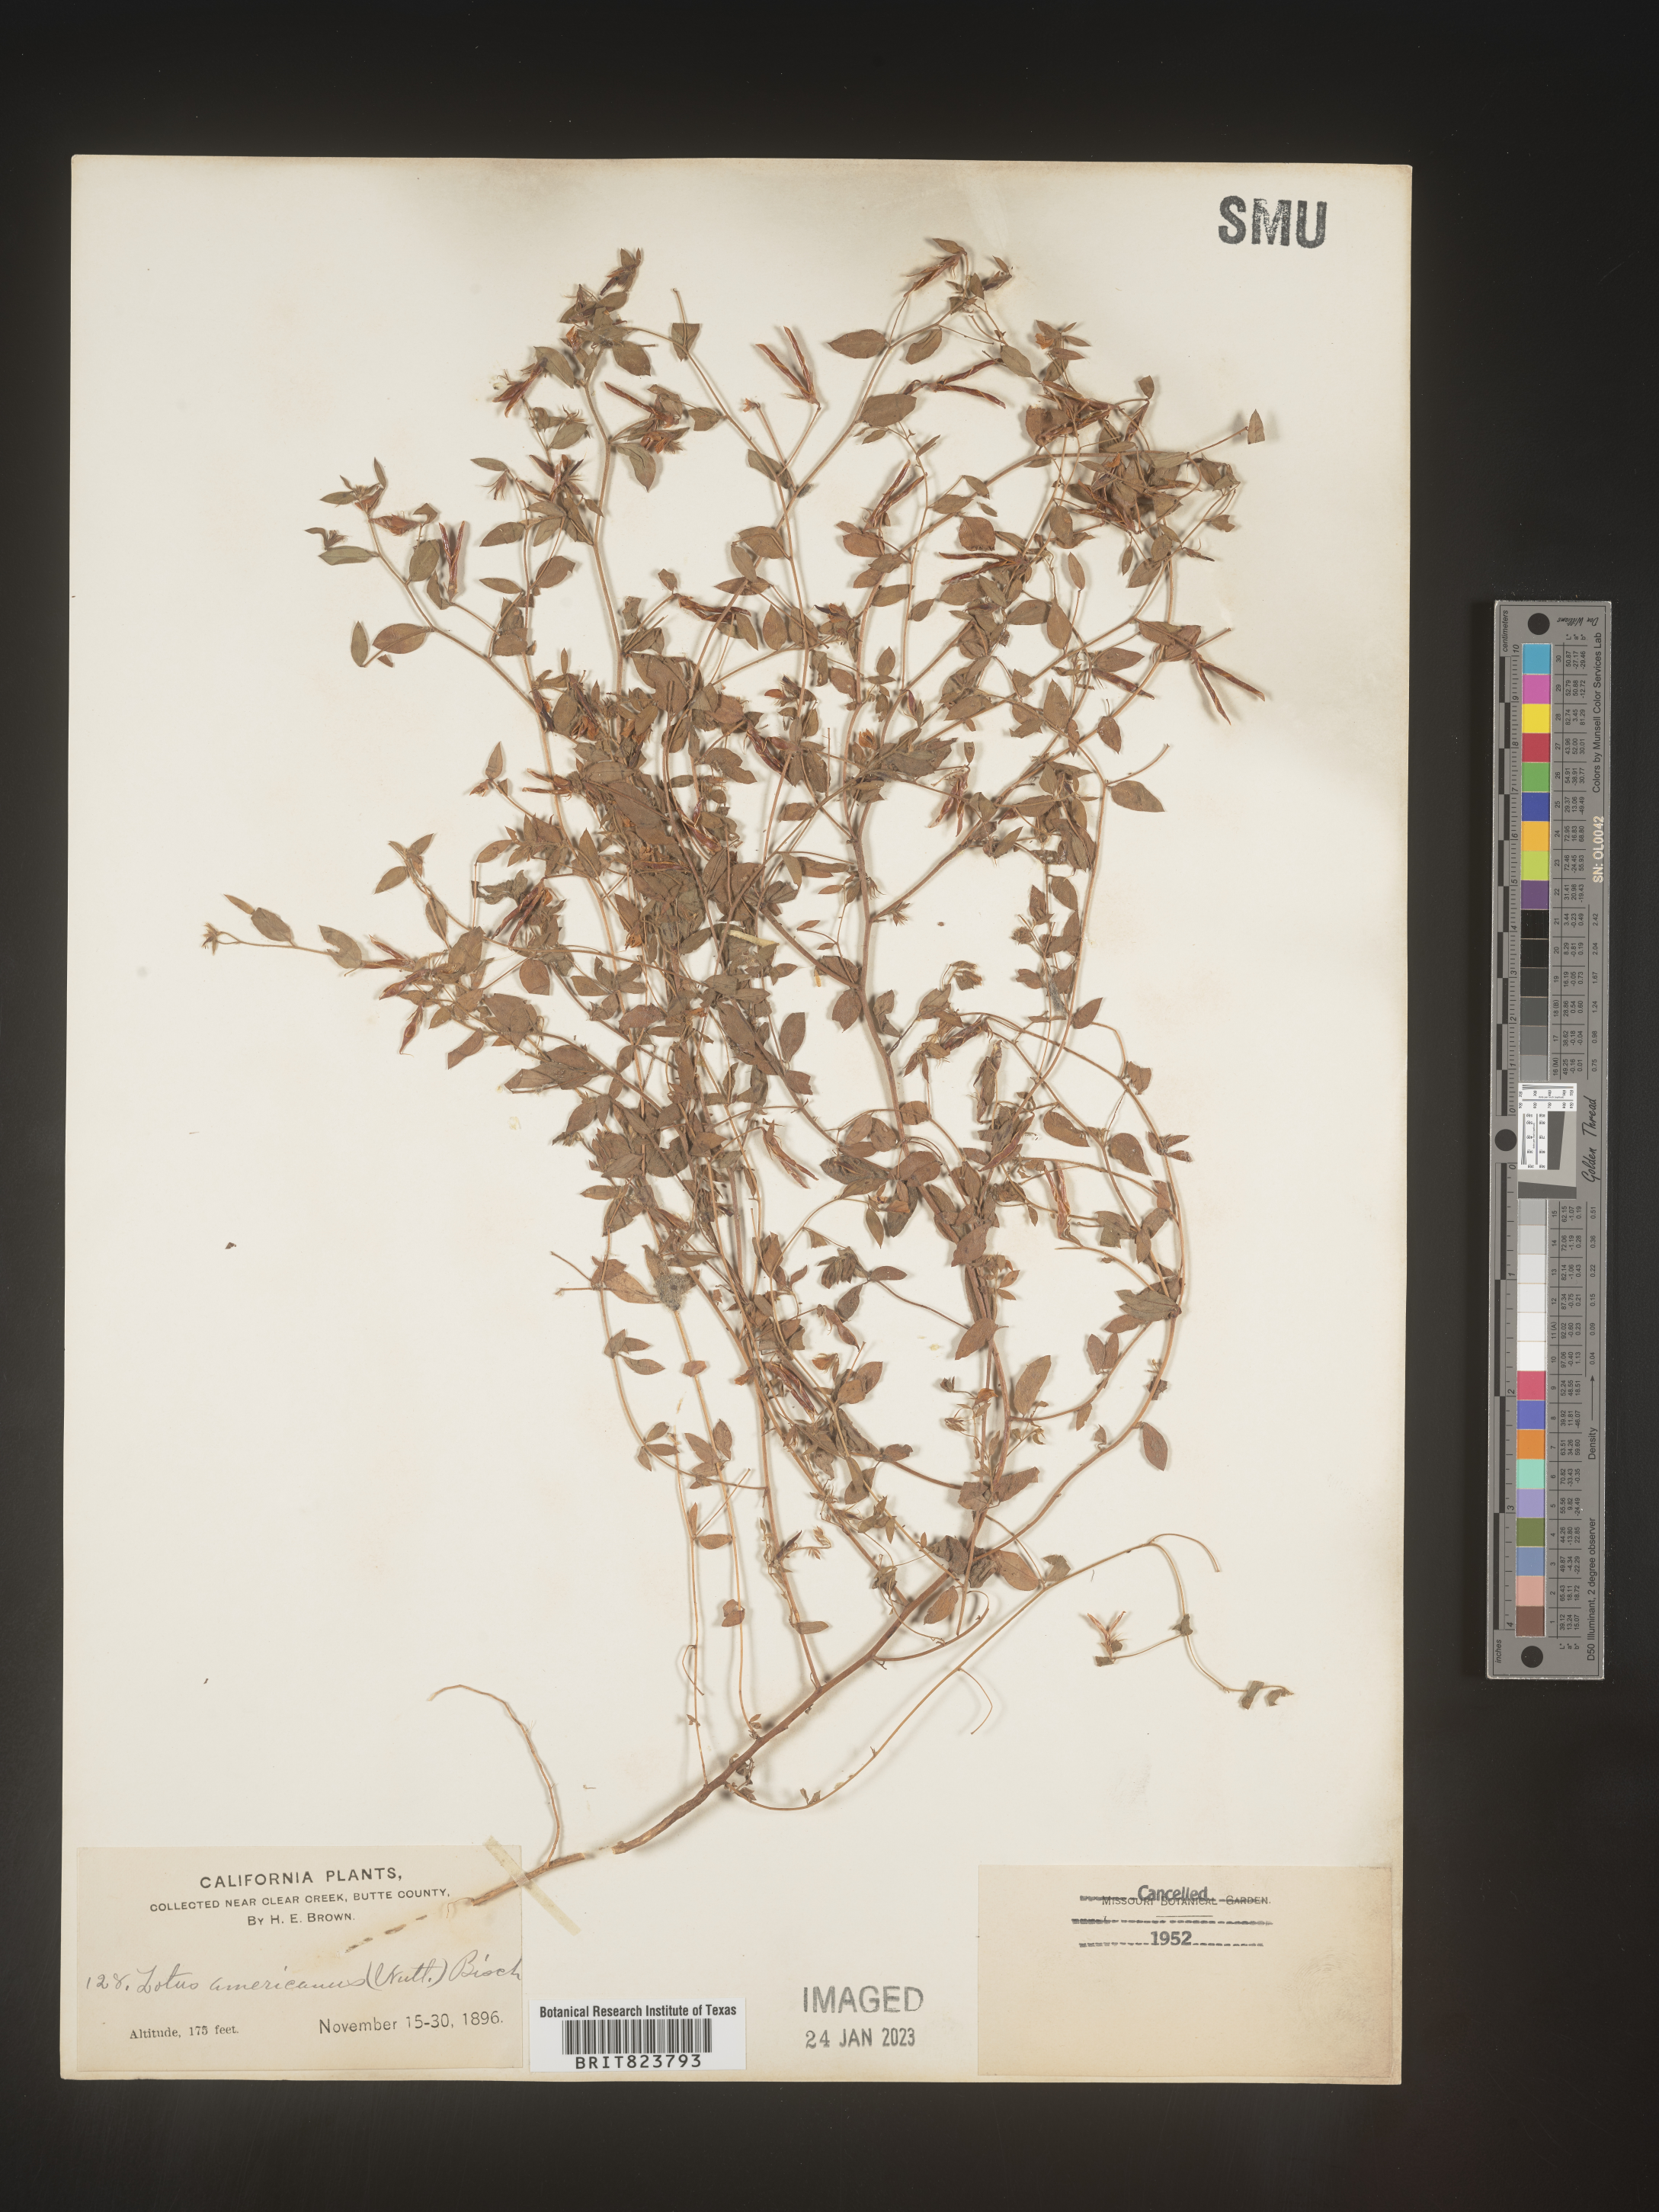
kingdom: Plantae
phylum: Tracheophyta
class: Magnoliopsida
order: Fabales
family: Fabaceae
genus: Acmispon
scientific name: Acmispon americanus
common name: American bird's-foot trefoil
